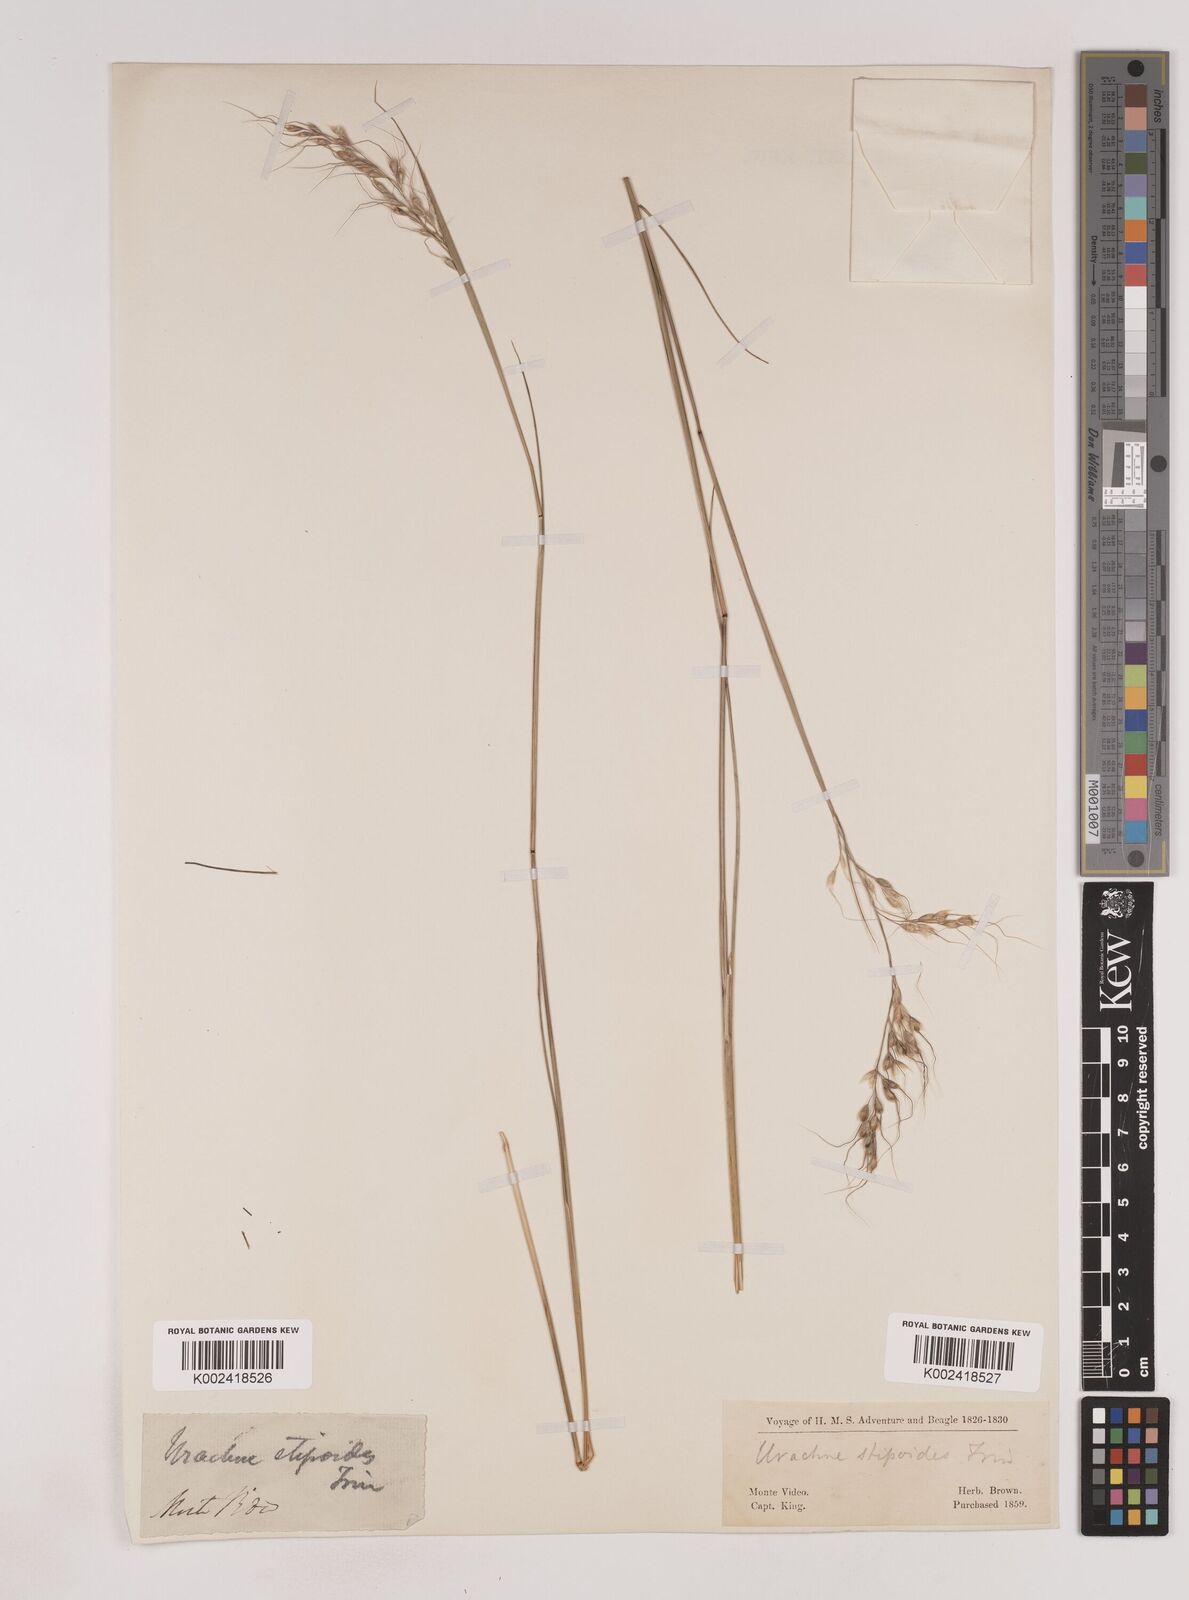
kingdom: Plantae
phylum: Tracheophyta
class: Liliopsida
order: Poales
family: Poaceae
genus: Piptochaetium
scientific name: Piptochaetium stipoides
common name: Purple speargrass
